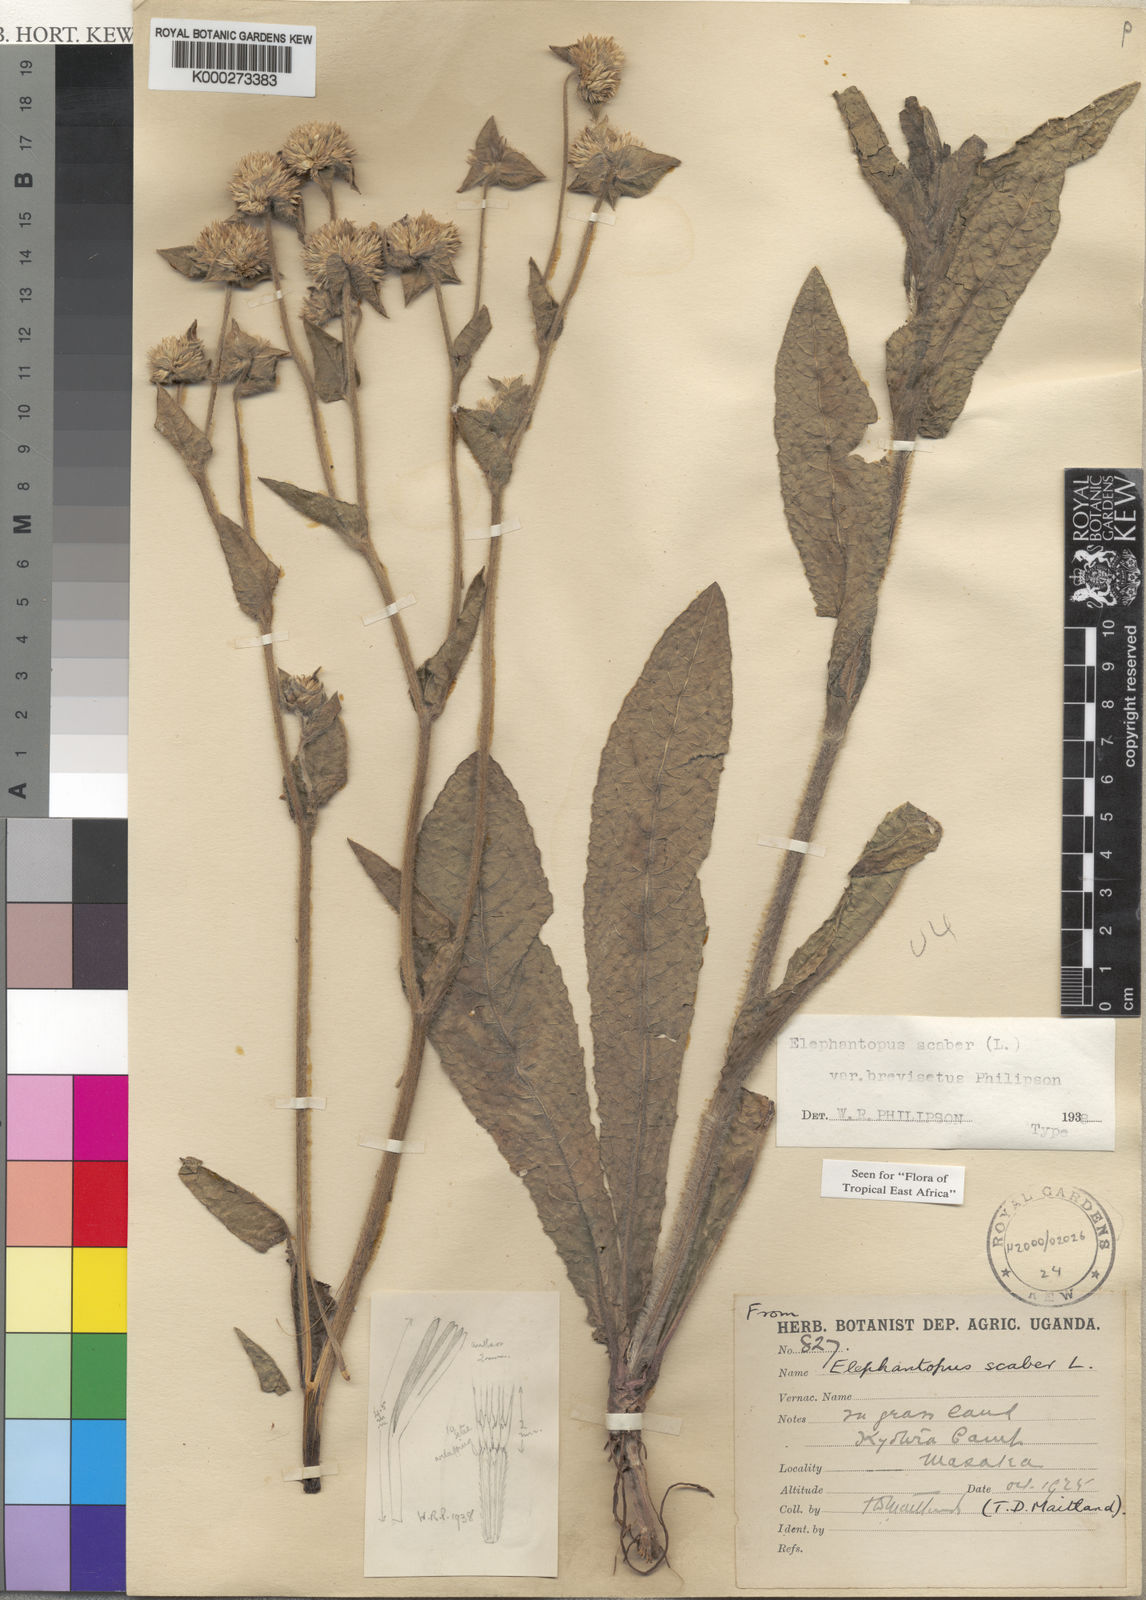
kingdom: Plantae
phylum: Tracheophyta
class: Magnoliopsida
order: Asterales
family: Asteraceae
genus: Elephantopus
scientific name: Elephantopus scaber
